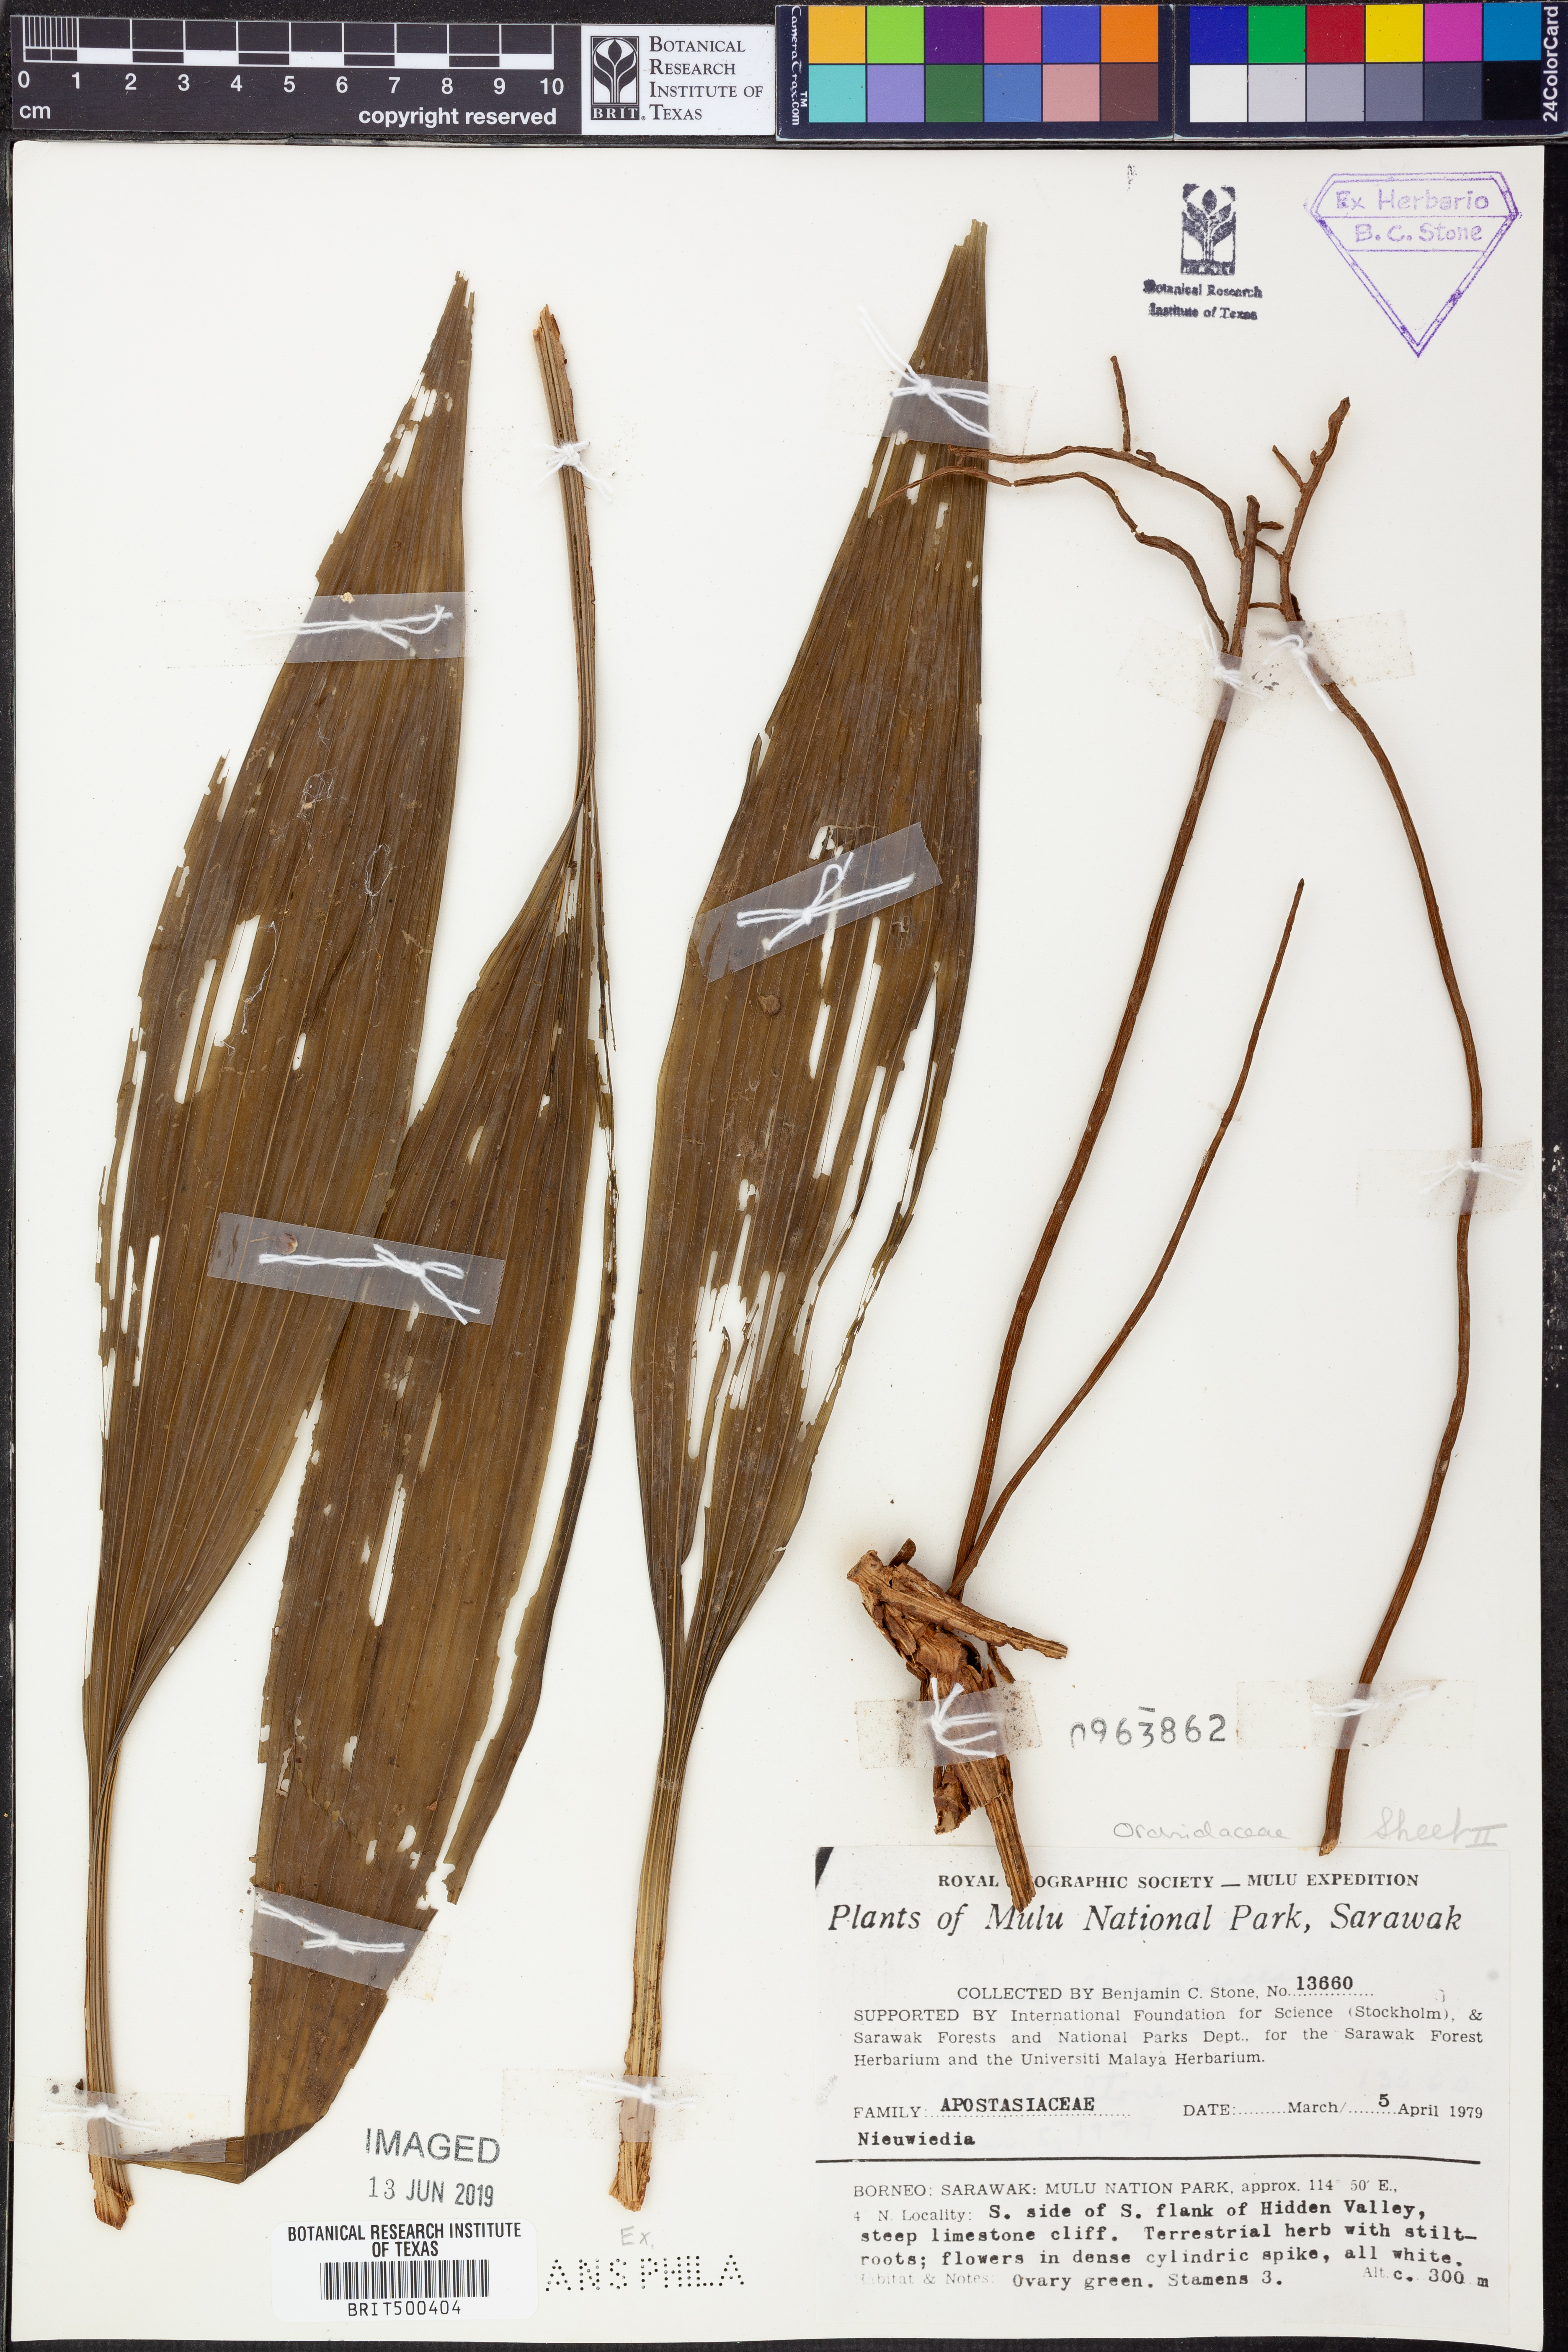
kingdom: Plantae
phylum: Tracheophyta
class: Liliopsida
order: Asparagales
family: Orchidaceae
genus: Neuwiedia
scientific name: Neuwiedia
